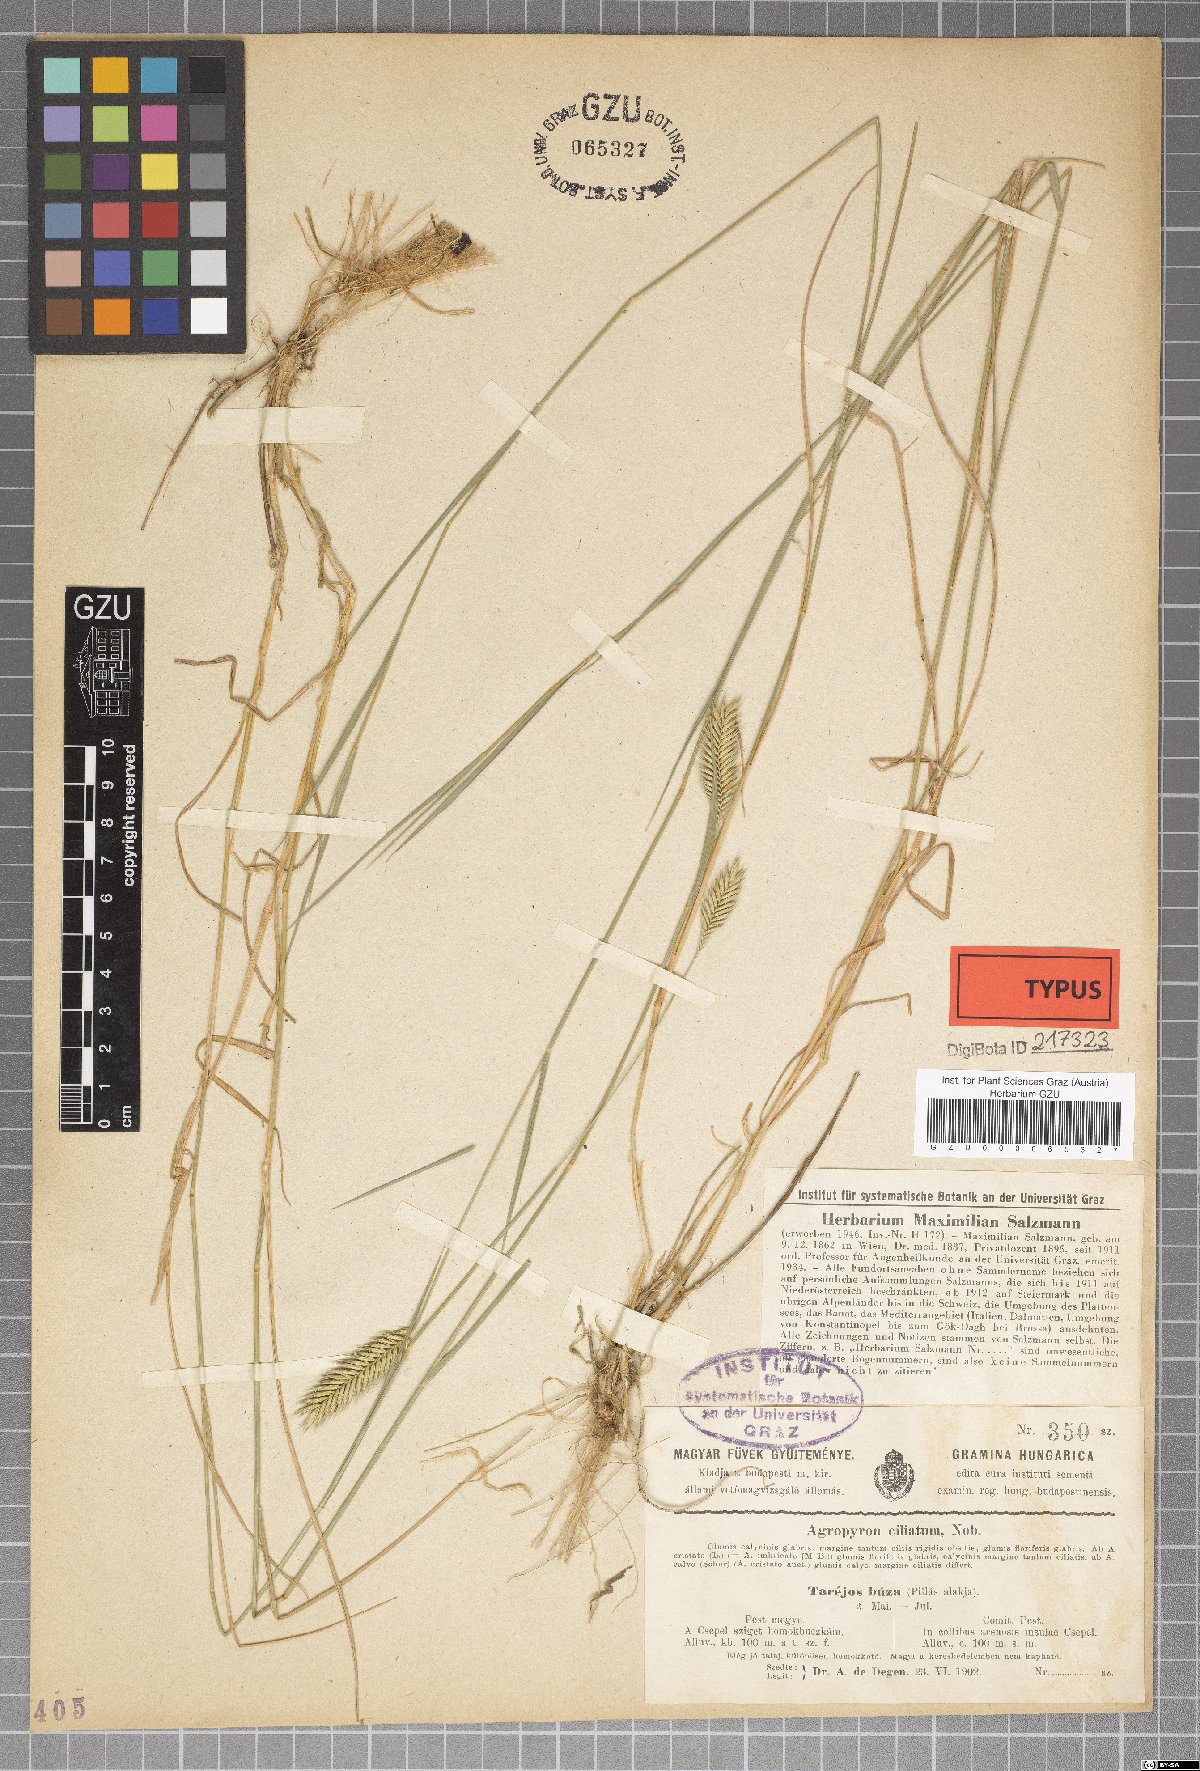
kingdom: Plantae
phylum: Tracheophyta
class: Liliopsida
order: Poales
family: Poaceae
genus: Elymus
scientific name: Elymus lolioides
